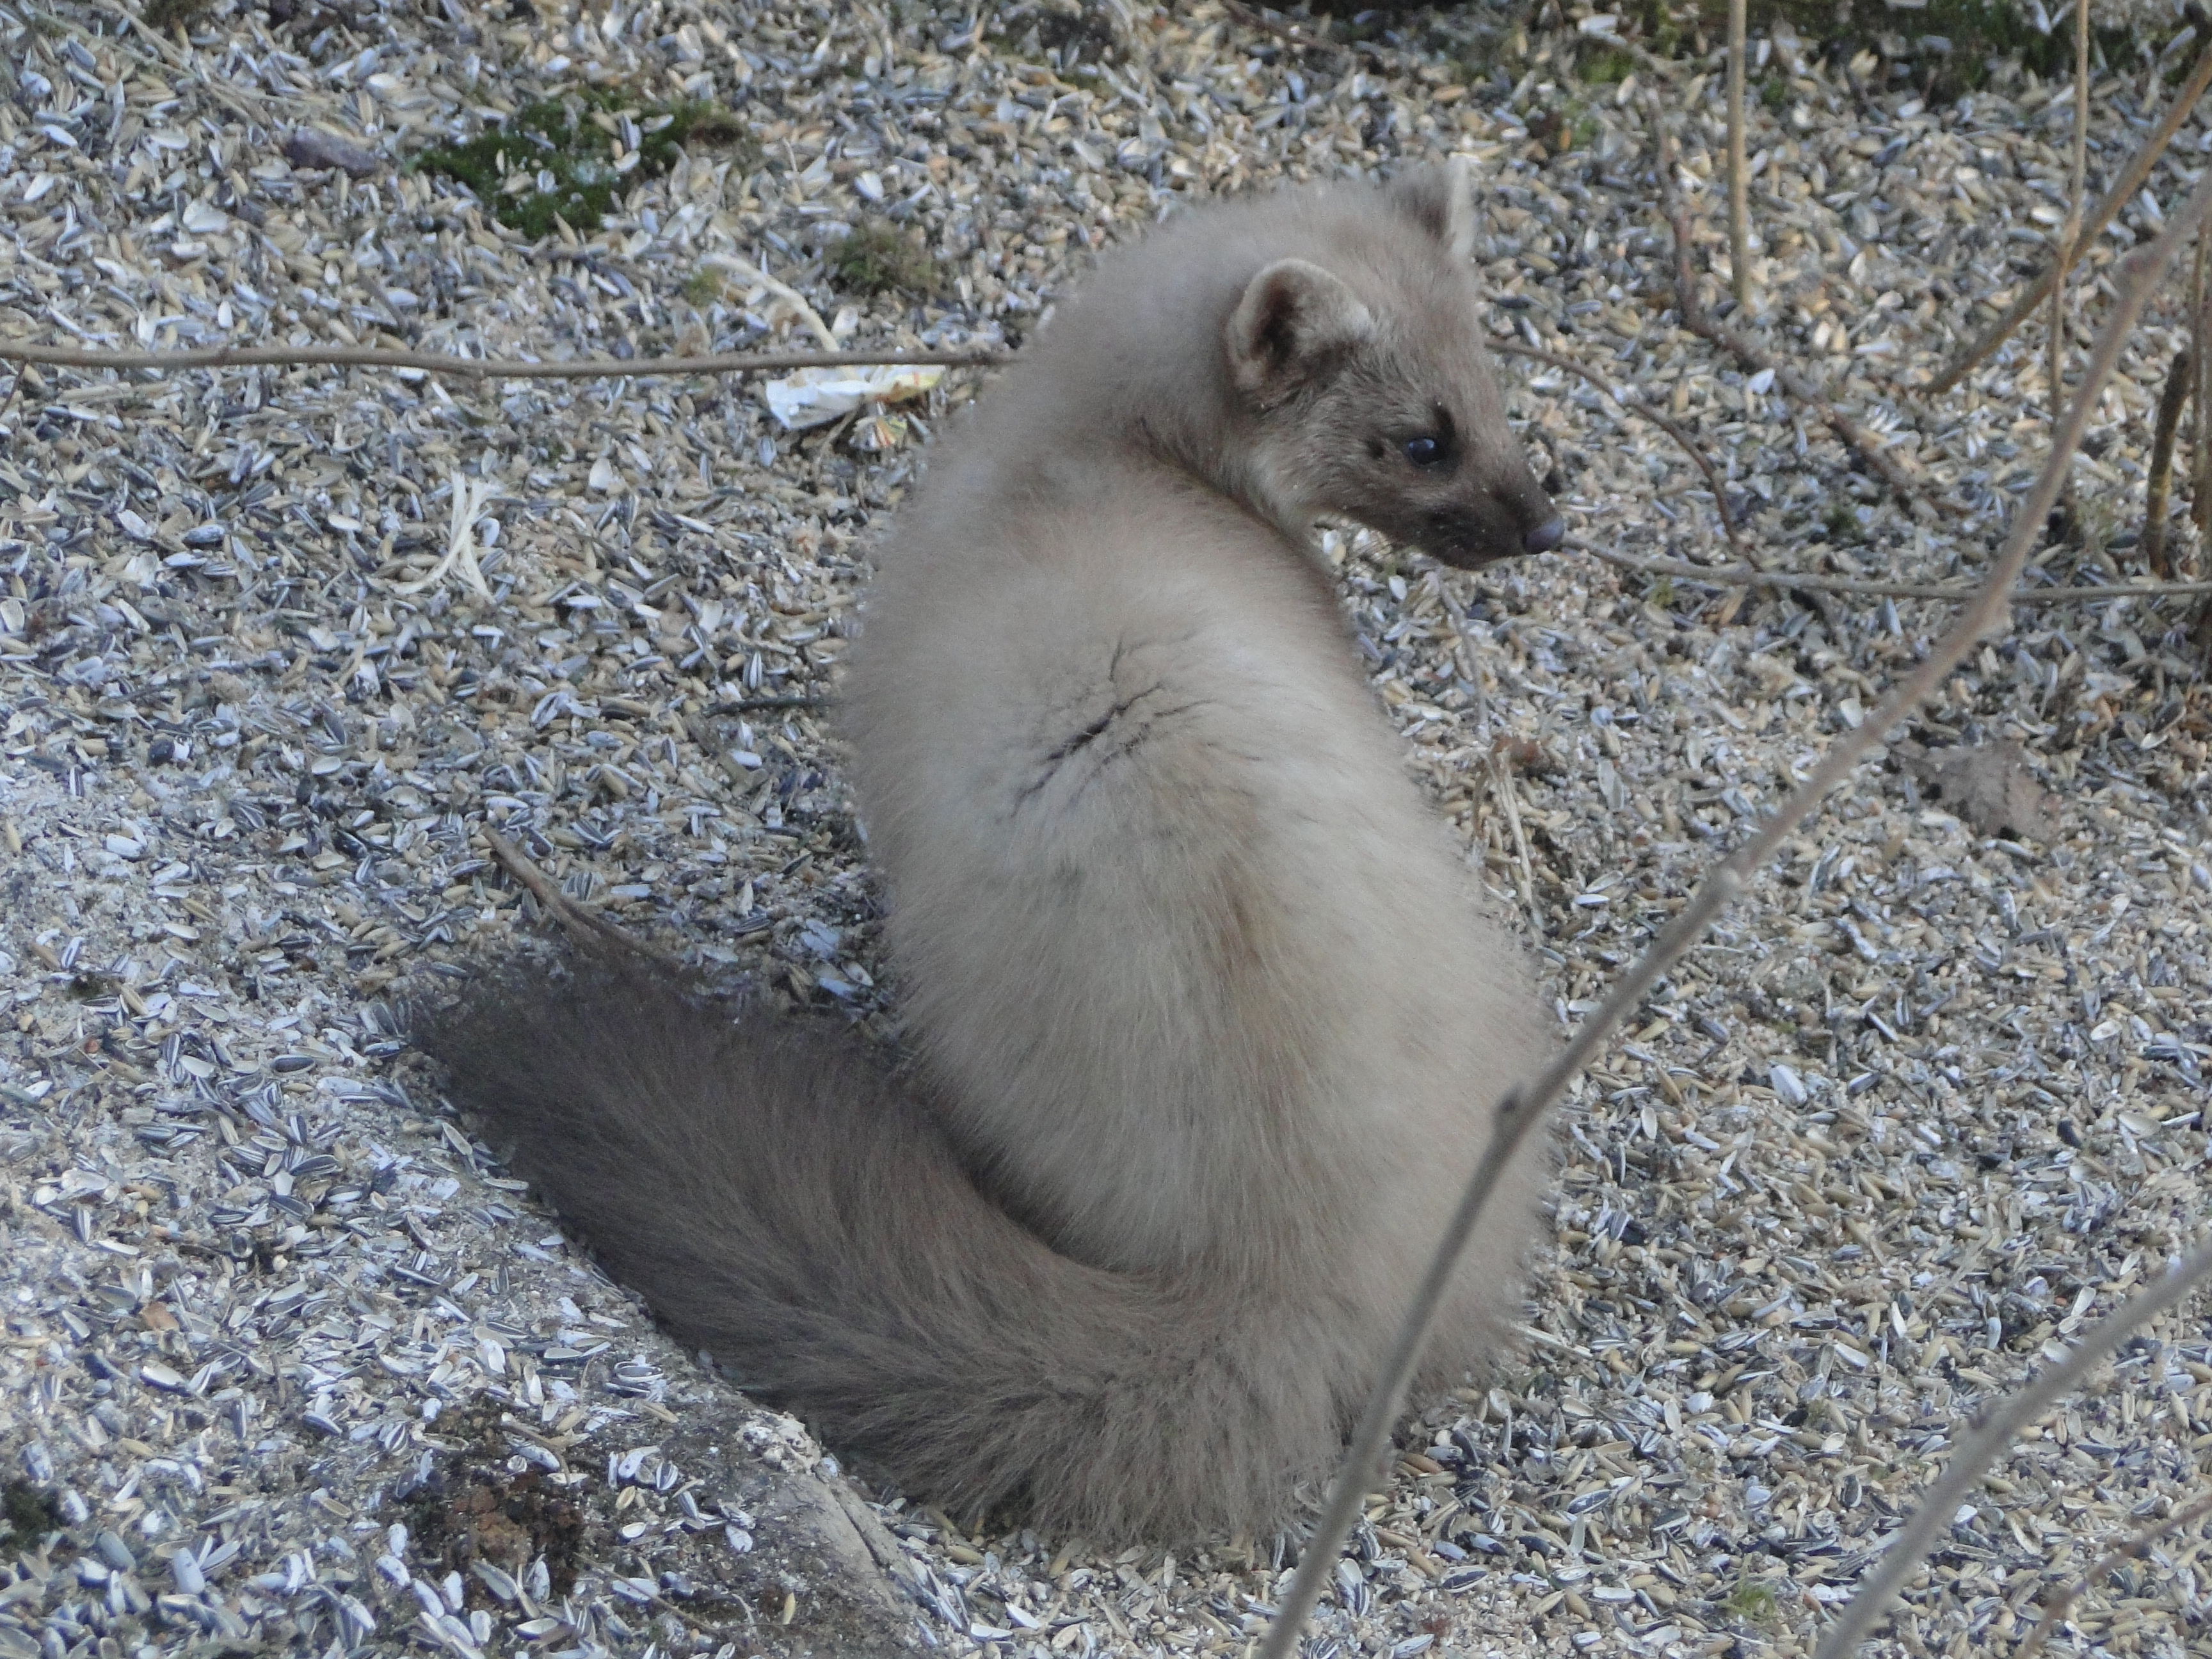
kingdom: Animalia
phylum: Chordata
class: Mammalia
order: Carnivora
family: Mustelidae
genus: Martes
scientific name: Martes martes
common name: European pine marten
